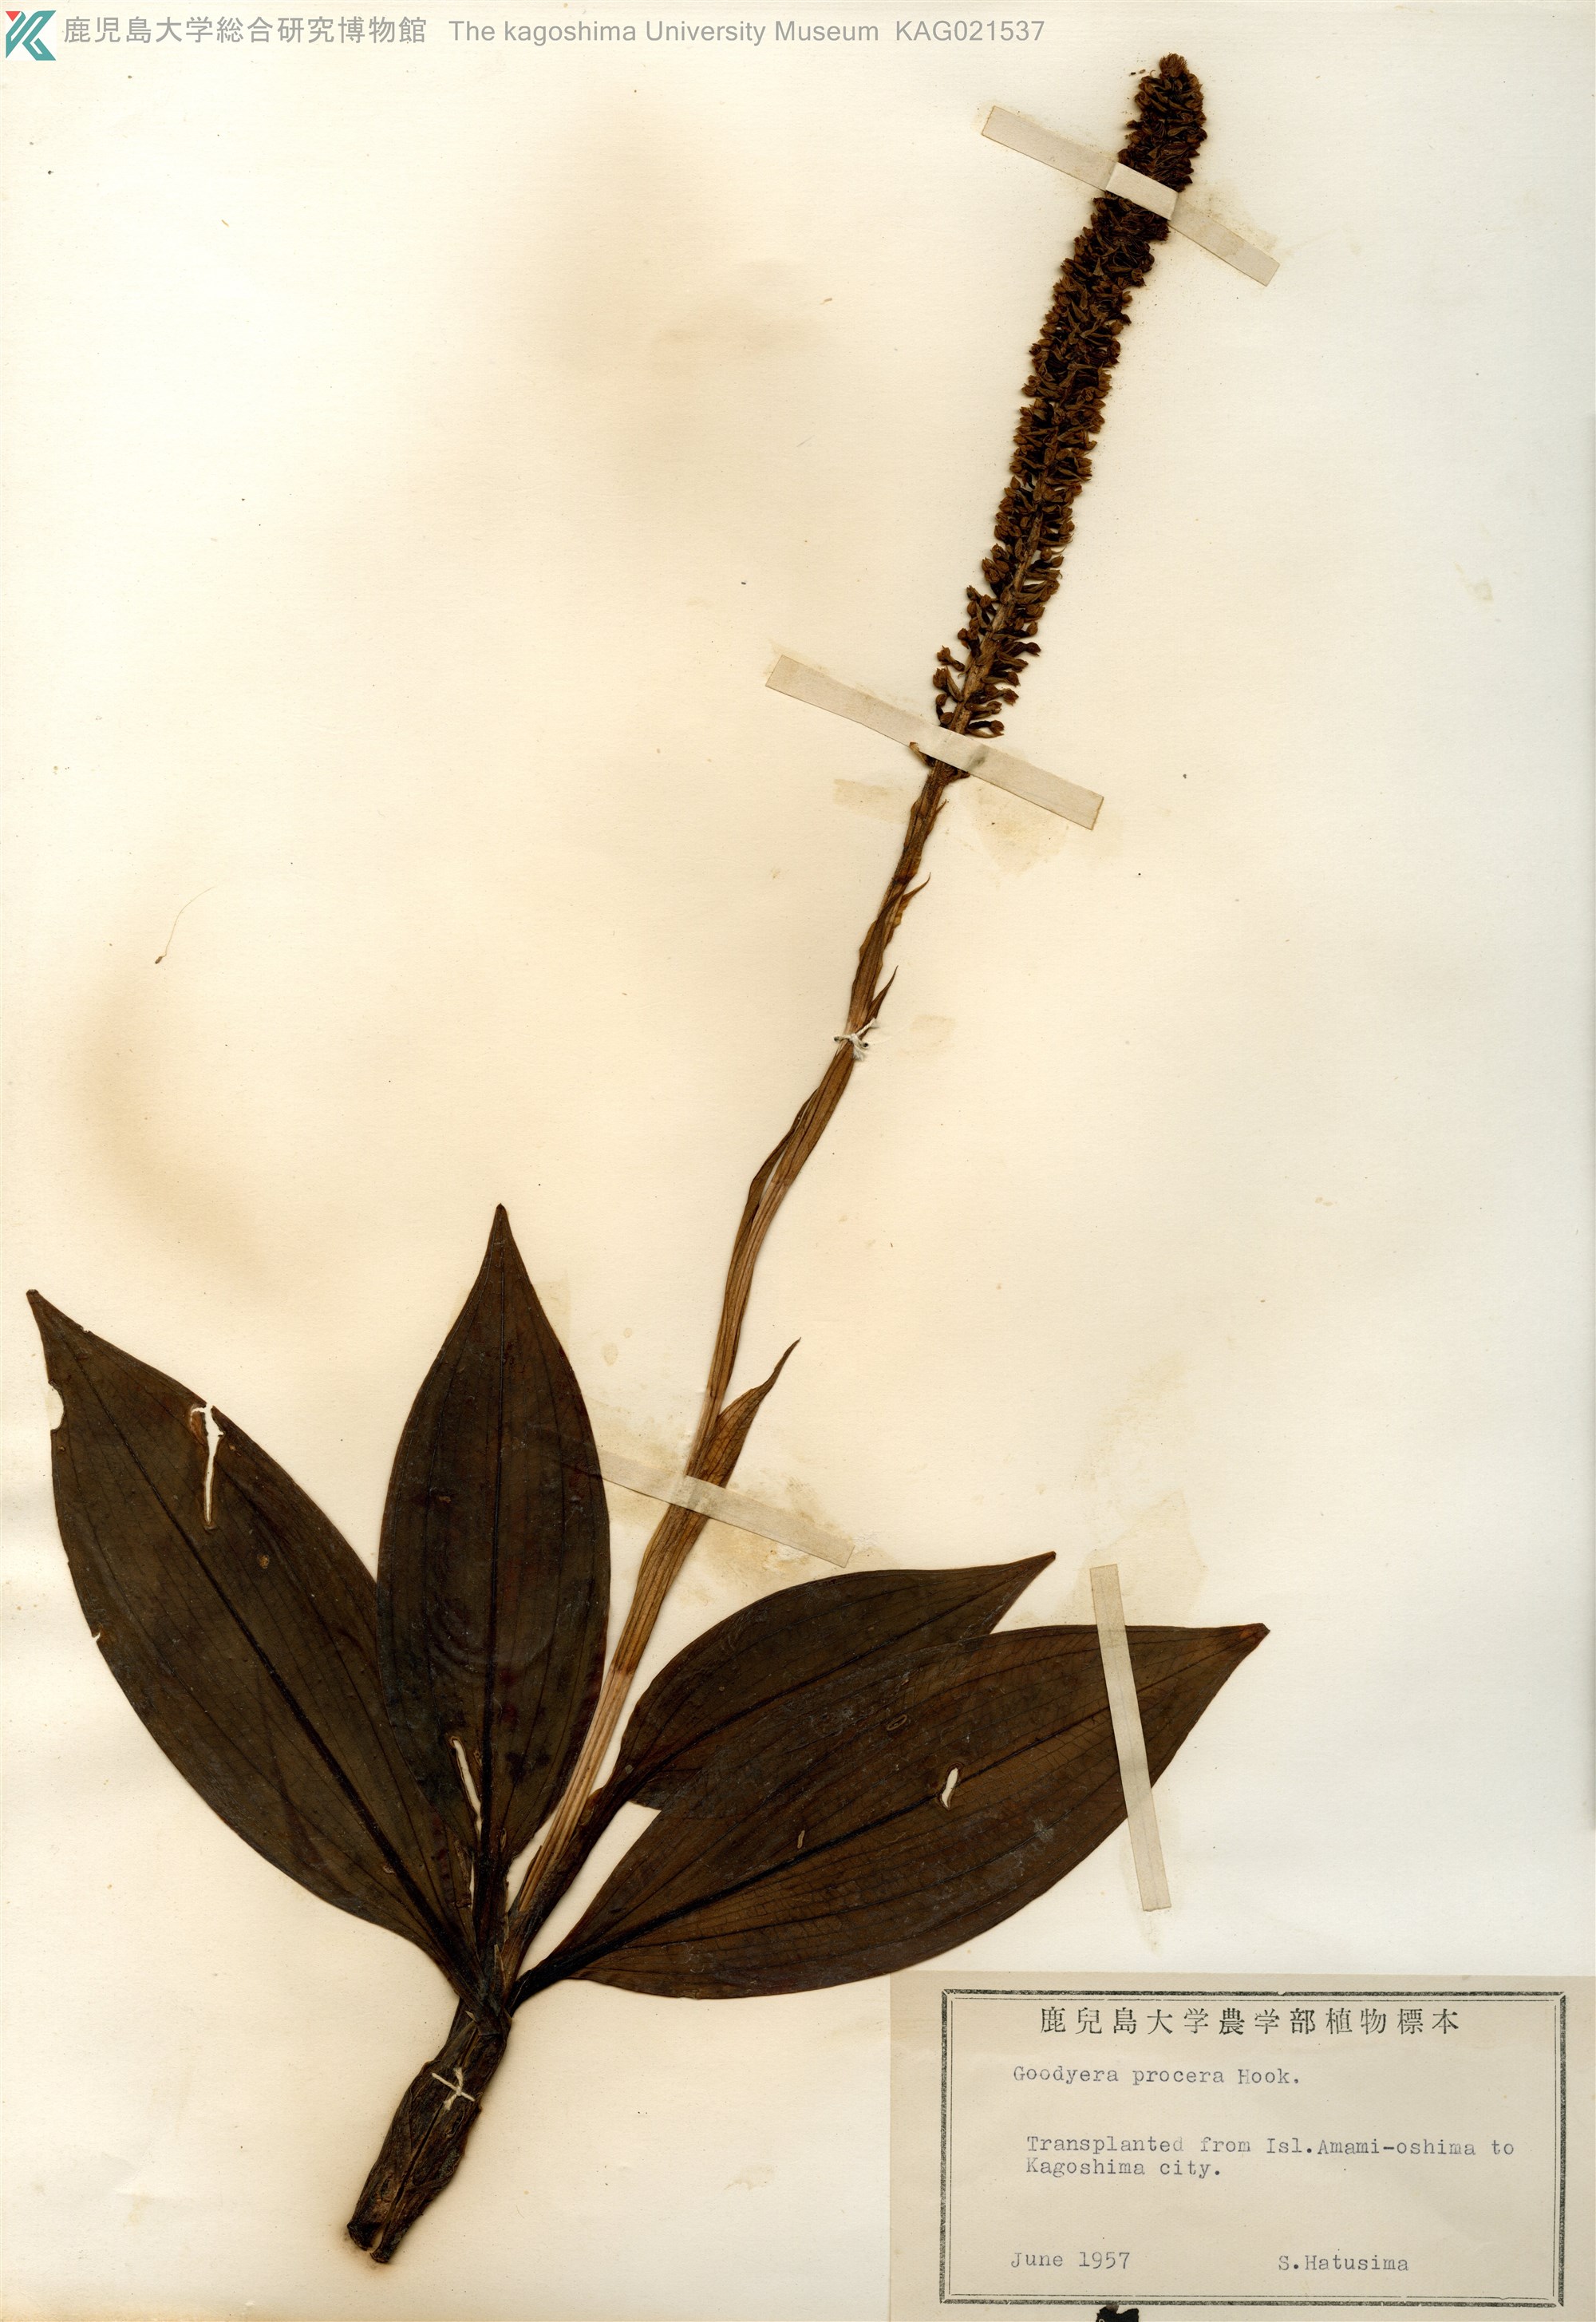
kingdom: Plantae
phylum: Tracheophyta
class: Liliopsida
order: Asparagales
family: Orchidaceae
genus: Goodyera
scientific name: Goodyera procera
